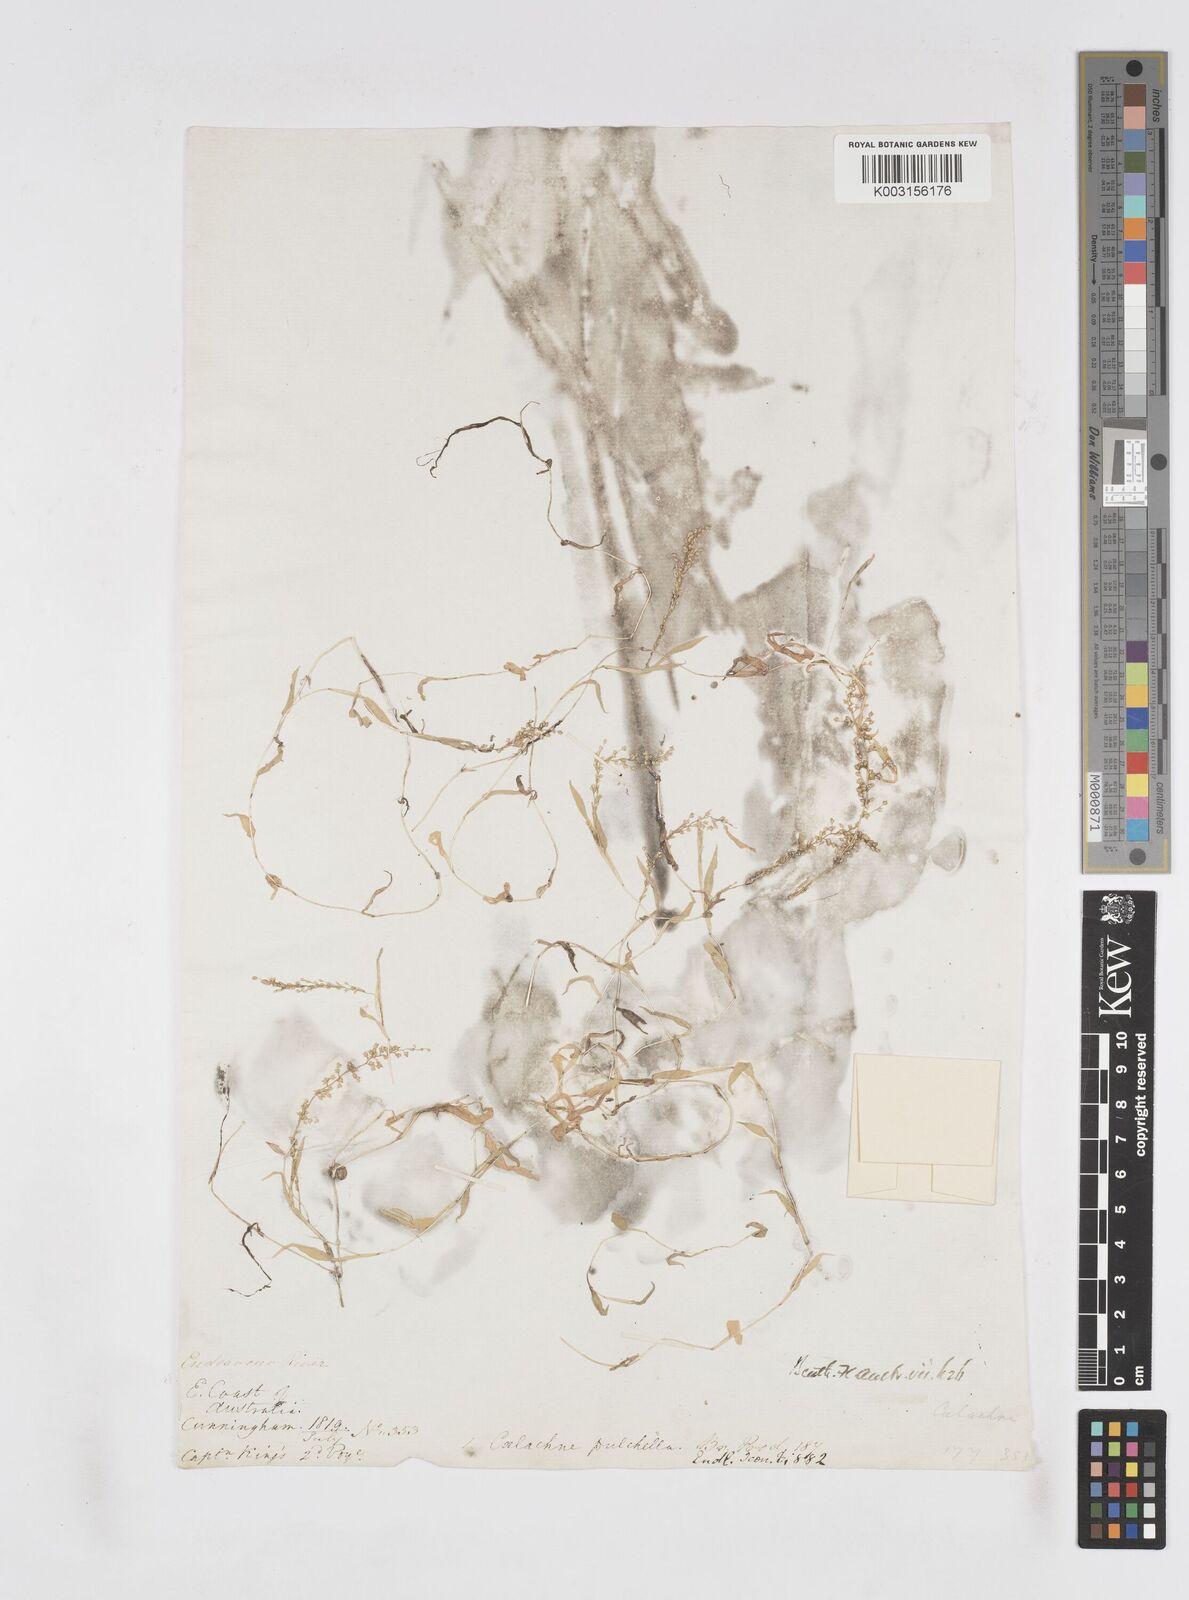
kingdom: Plantae
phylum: Tracheophyta
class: Liliopsida
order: Poales
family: Poaceae
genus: Coelachne
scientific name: Coelachne pulchella
